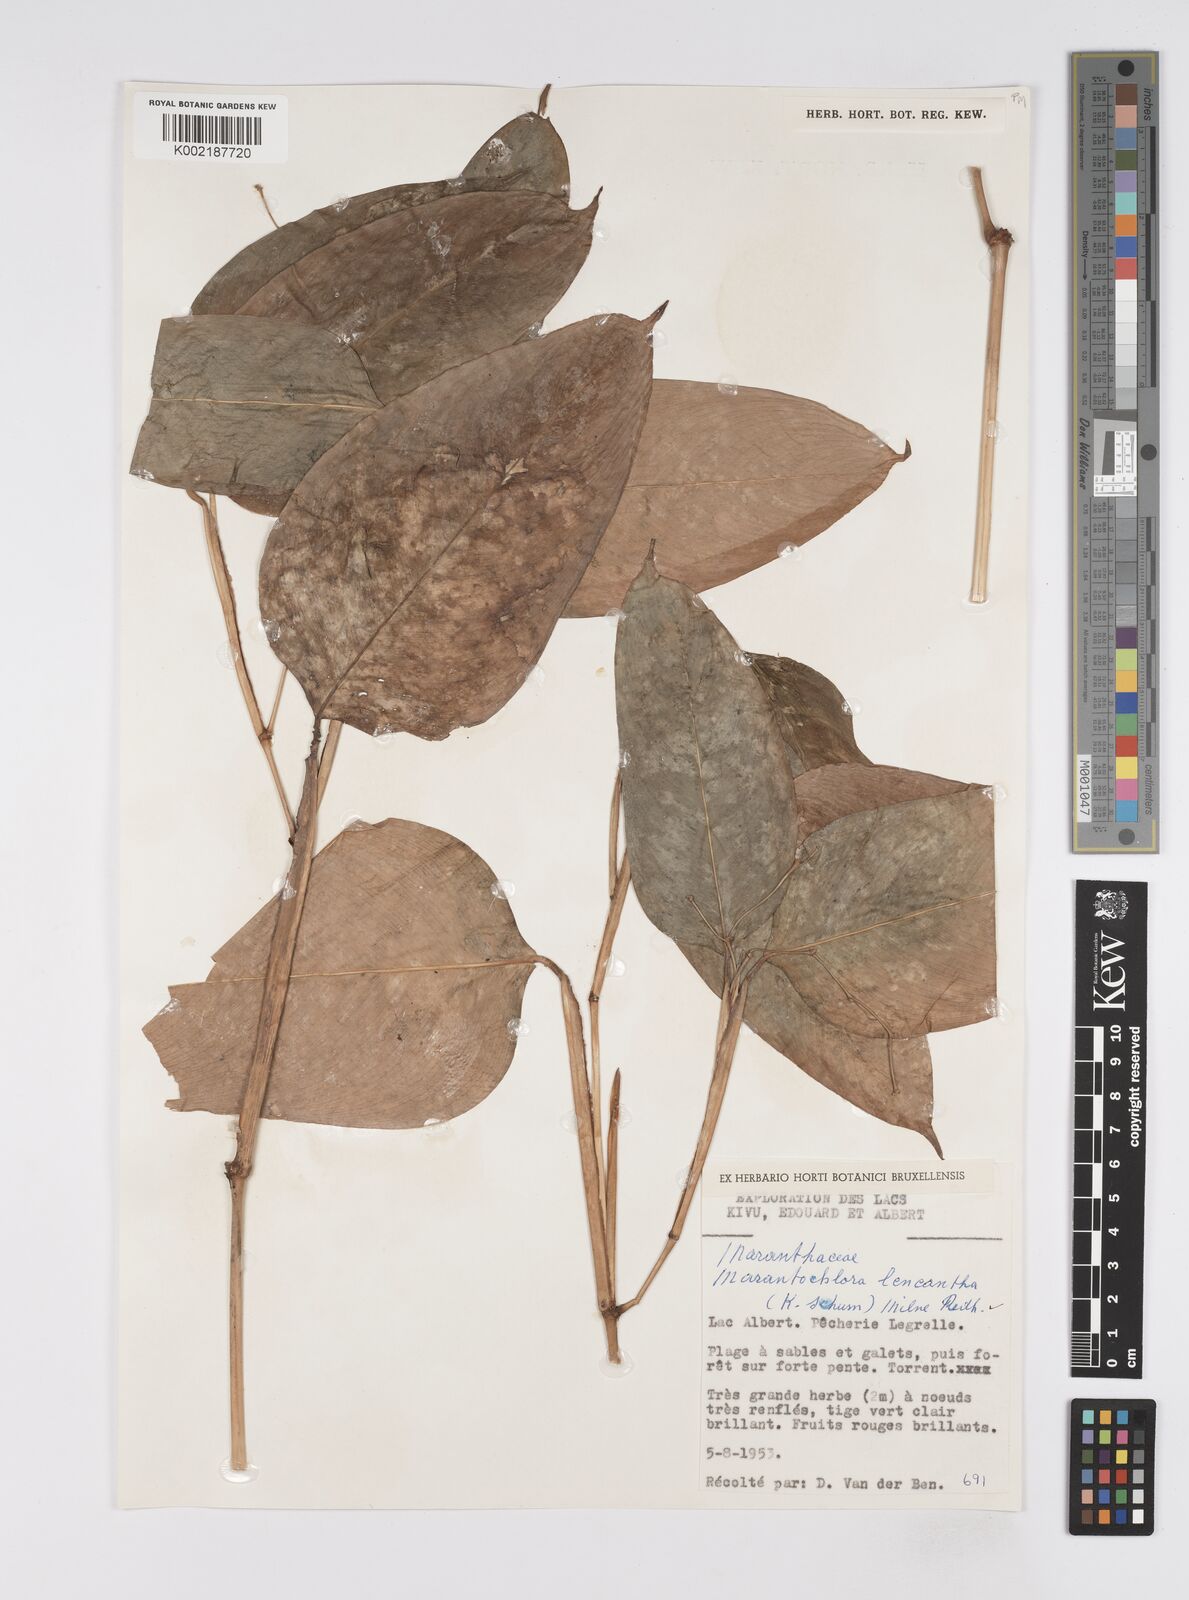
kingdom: Plantae
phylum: Tracheophyta
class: Liliopsida
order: Zingiberales
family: Marantaceae
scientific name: Marantaceae
